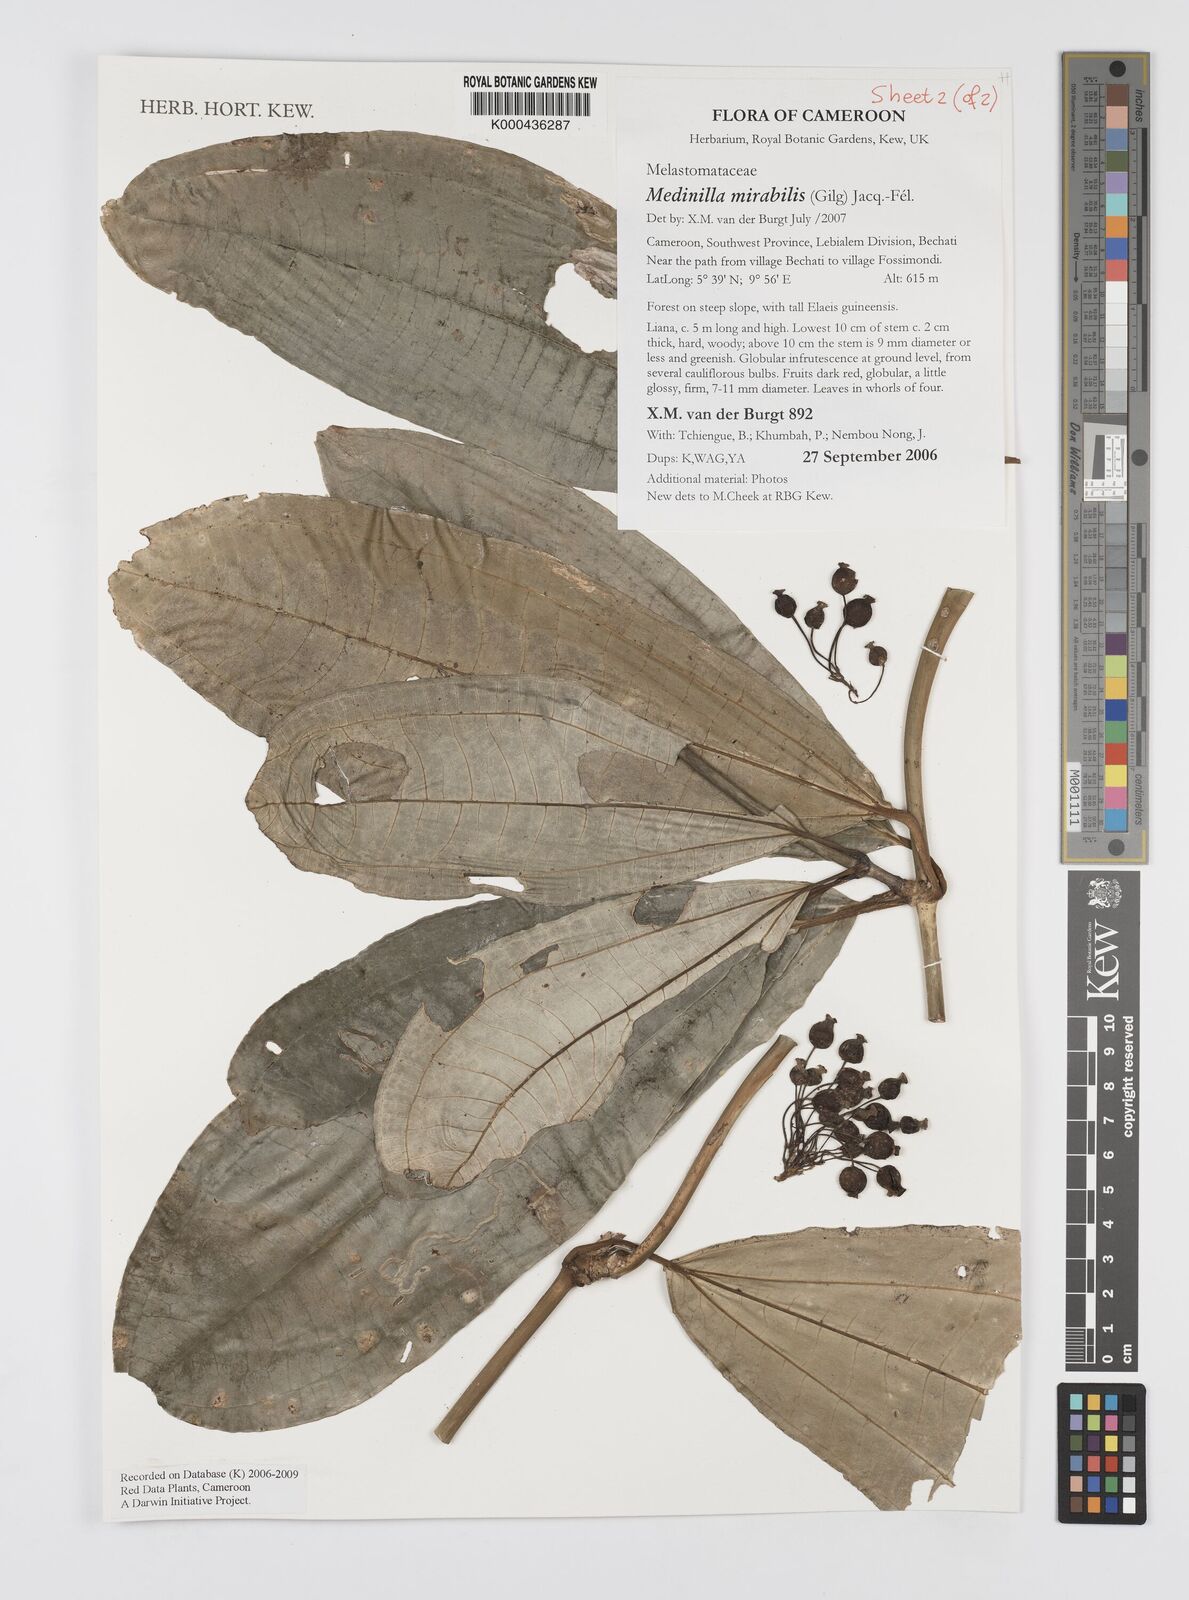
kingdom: Plantae
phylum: Tracheophyta
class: Magnoliopsida
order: Myrtales
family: Melastomataceae
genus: Medinilla
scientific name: Medinilla
